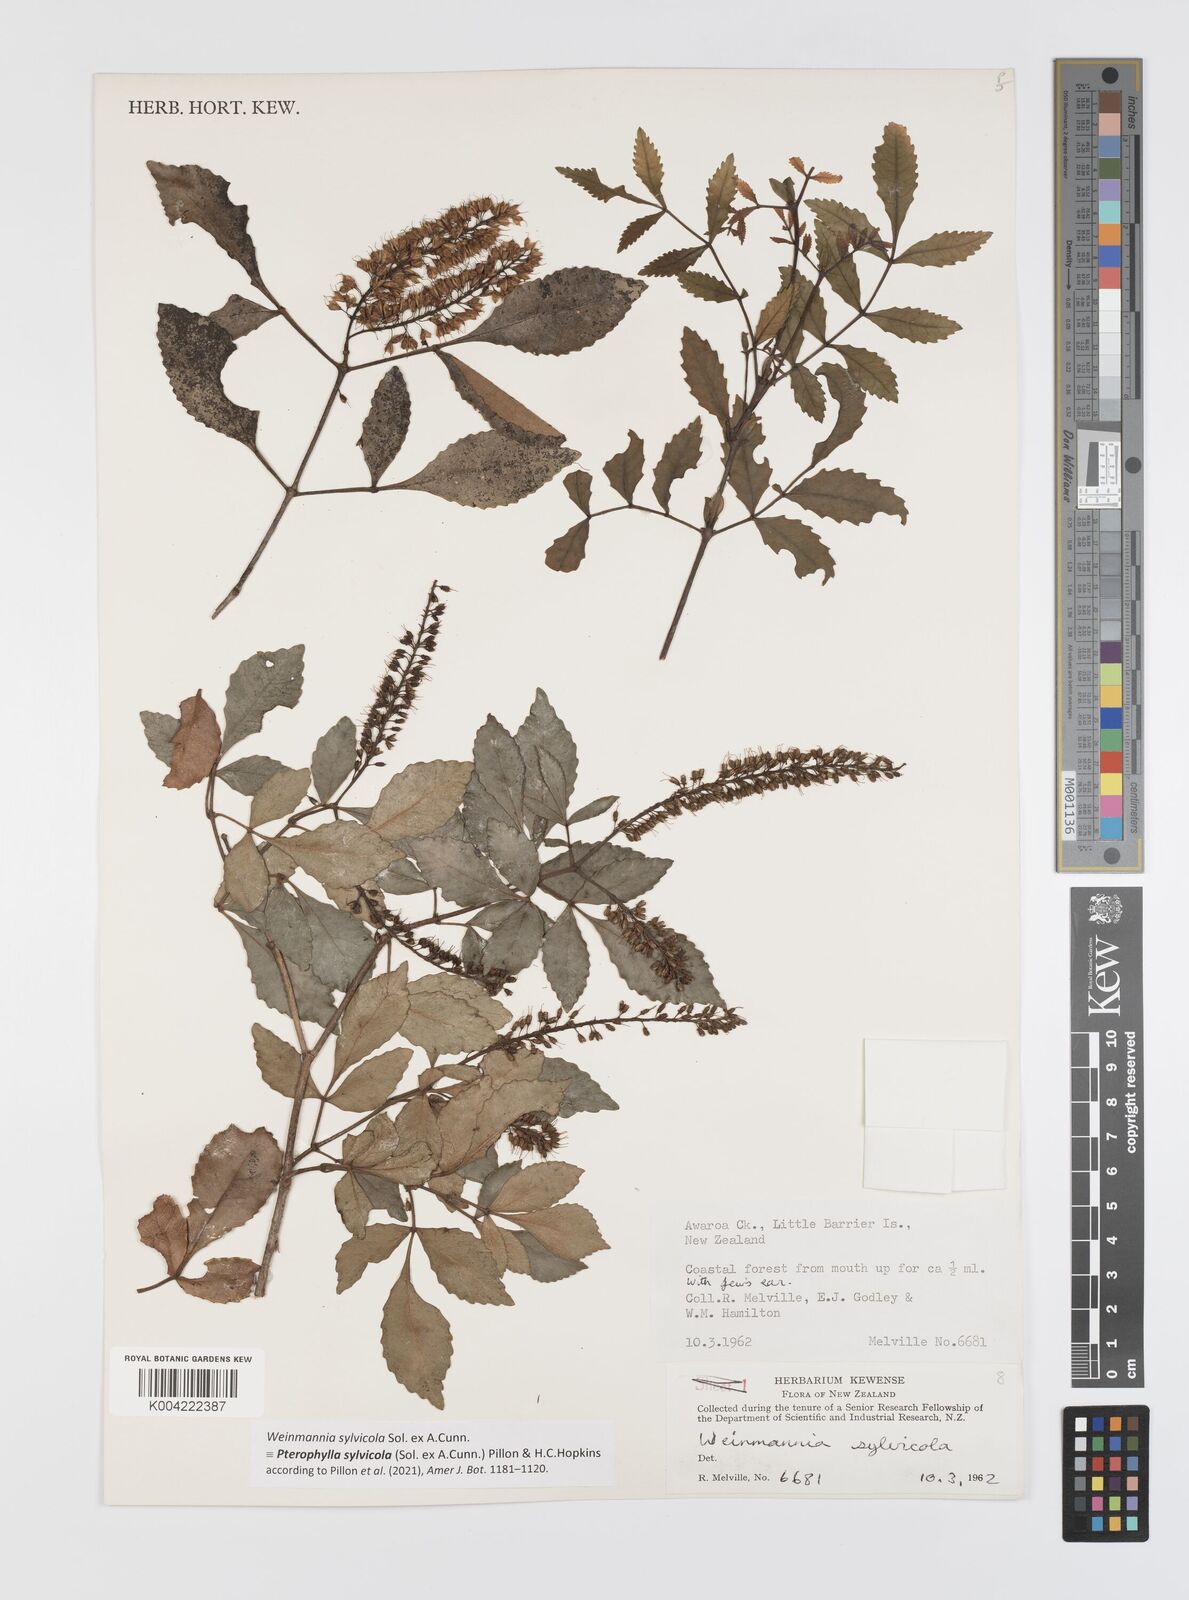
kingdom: Plantae
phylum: Tracheophyta
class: Magnoliopsida
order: Oxalidales
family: Cunoniaceae
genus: Pterophylla
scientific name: Pterophylla sylvicola
